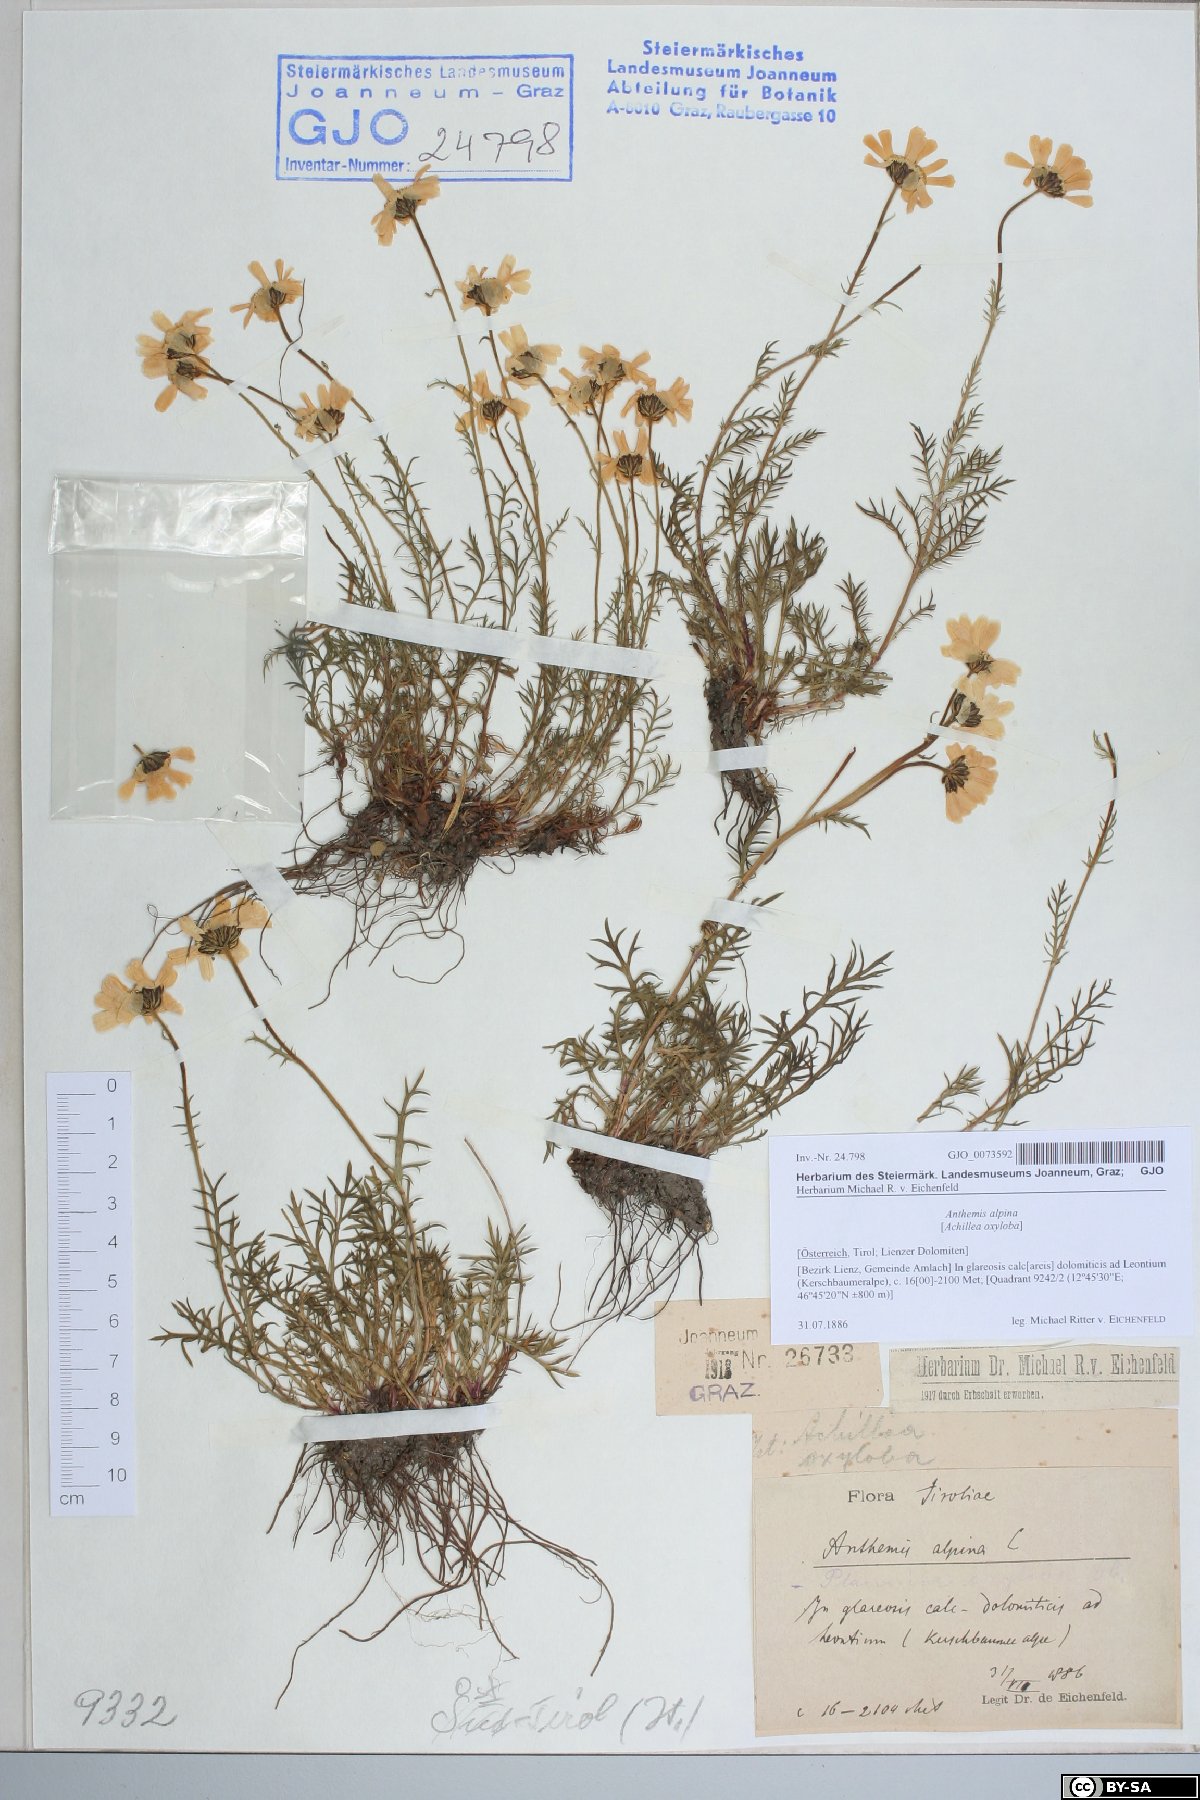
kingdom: Plantae
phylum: Tracheophyta
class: Magnoliopsida
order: Asterales
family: Asteraceae
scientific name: Asteraceae
